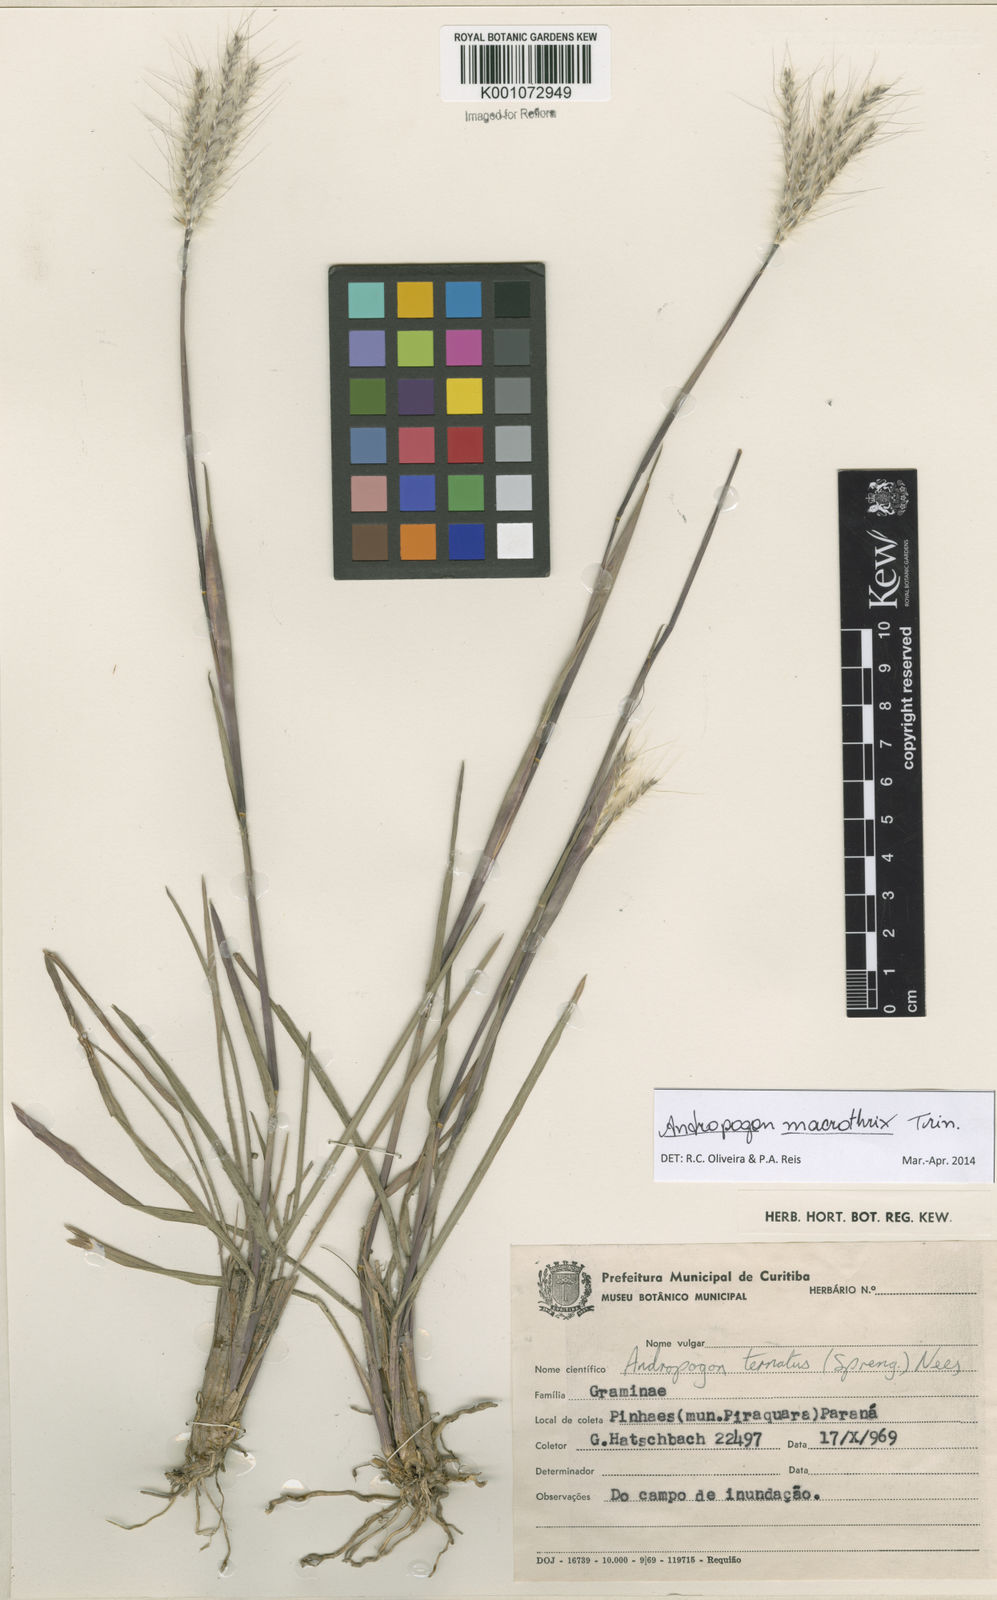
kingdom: Plantae
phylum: Tracheophyta
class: Liliopsida
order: Poales
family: Poaceae
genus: Andropogon
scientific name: Andropogon macrothrix
